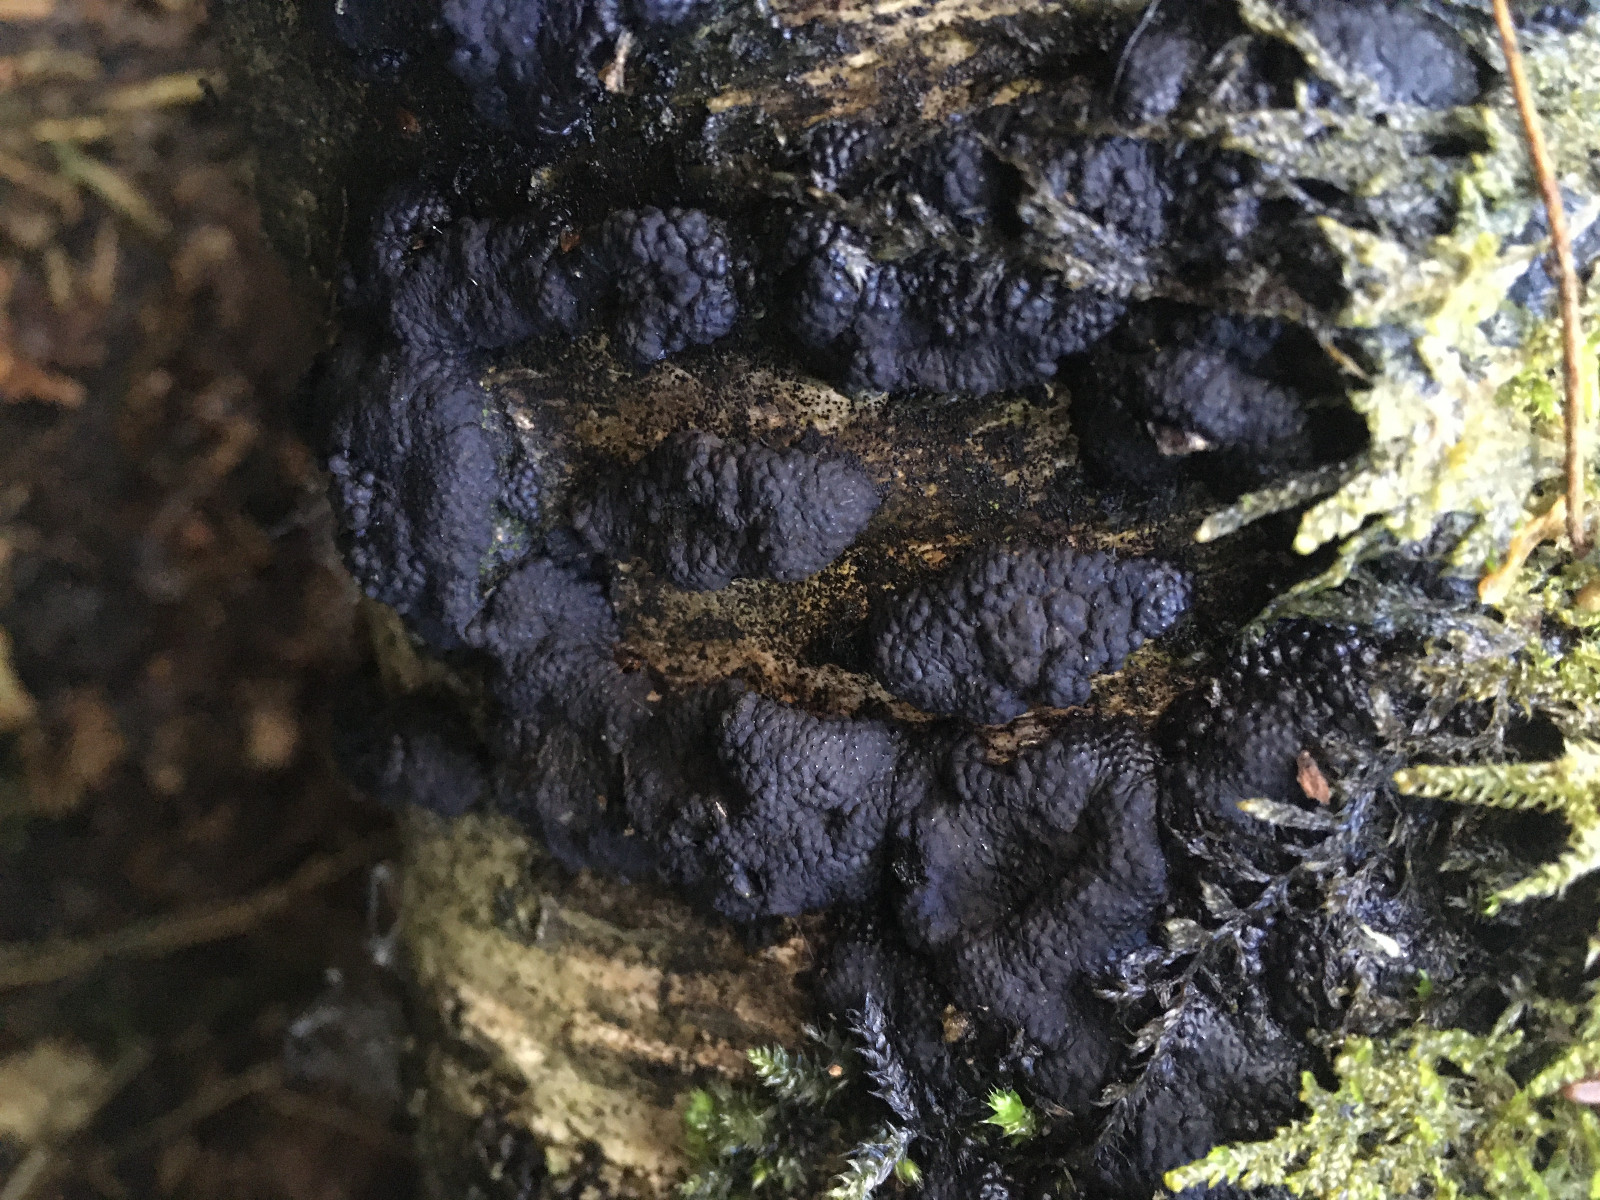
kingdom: Fungi
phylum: Ascomycota
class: Sordariomycetes
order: Xylariales
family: Hypoxylaceae
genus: Jackrogersella
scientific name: Jackrogersella multiformis
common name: foranderlig kulbær
